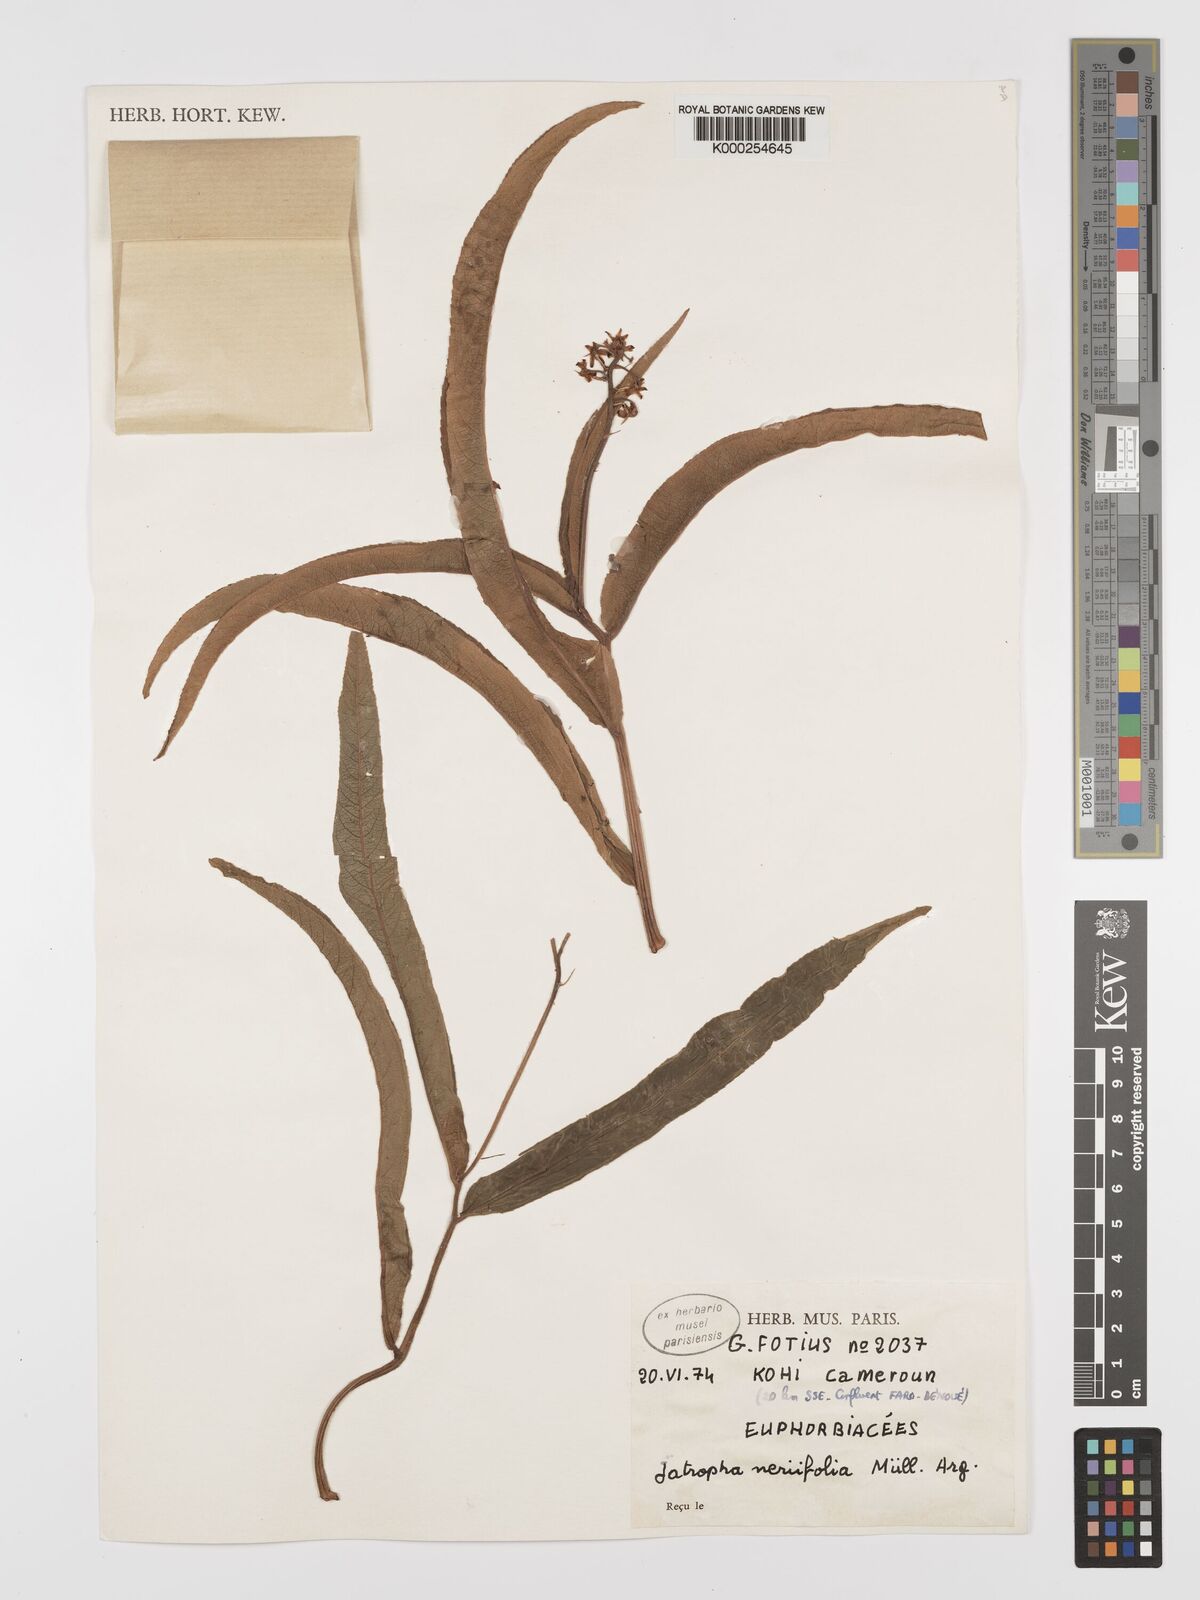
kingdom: Plantae
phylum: Tracheophyta
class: Magnoliopsida
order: Malpighiales
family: Euphorbiaceae
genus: Jatropha
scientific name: Jatropha
